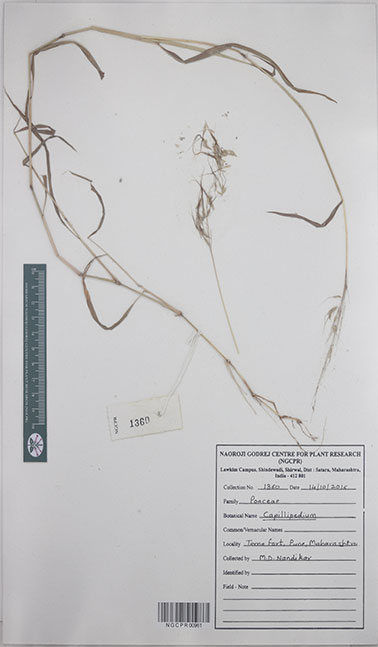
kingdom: Plantae
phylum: Tracheophyta
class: Liliopsida
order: Poales
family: Poaceae
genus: Capillipedium
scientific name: Capillipedium
